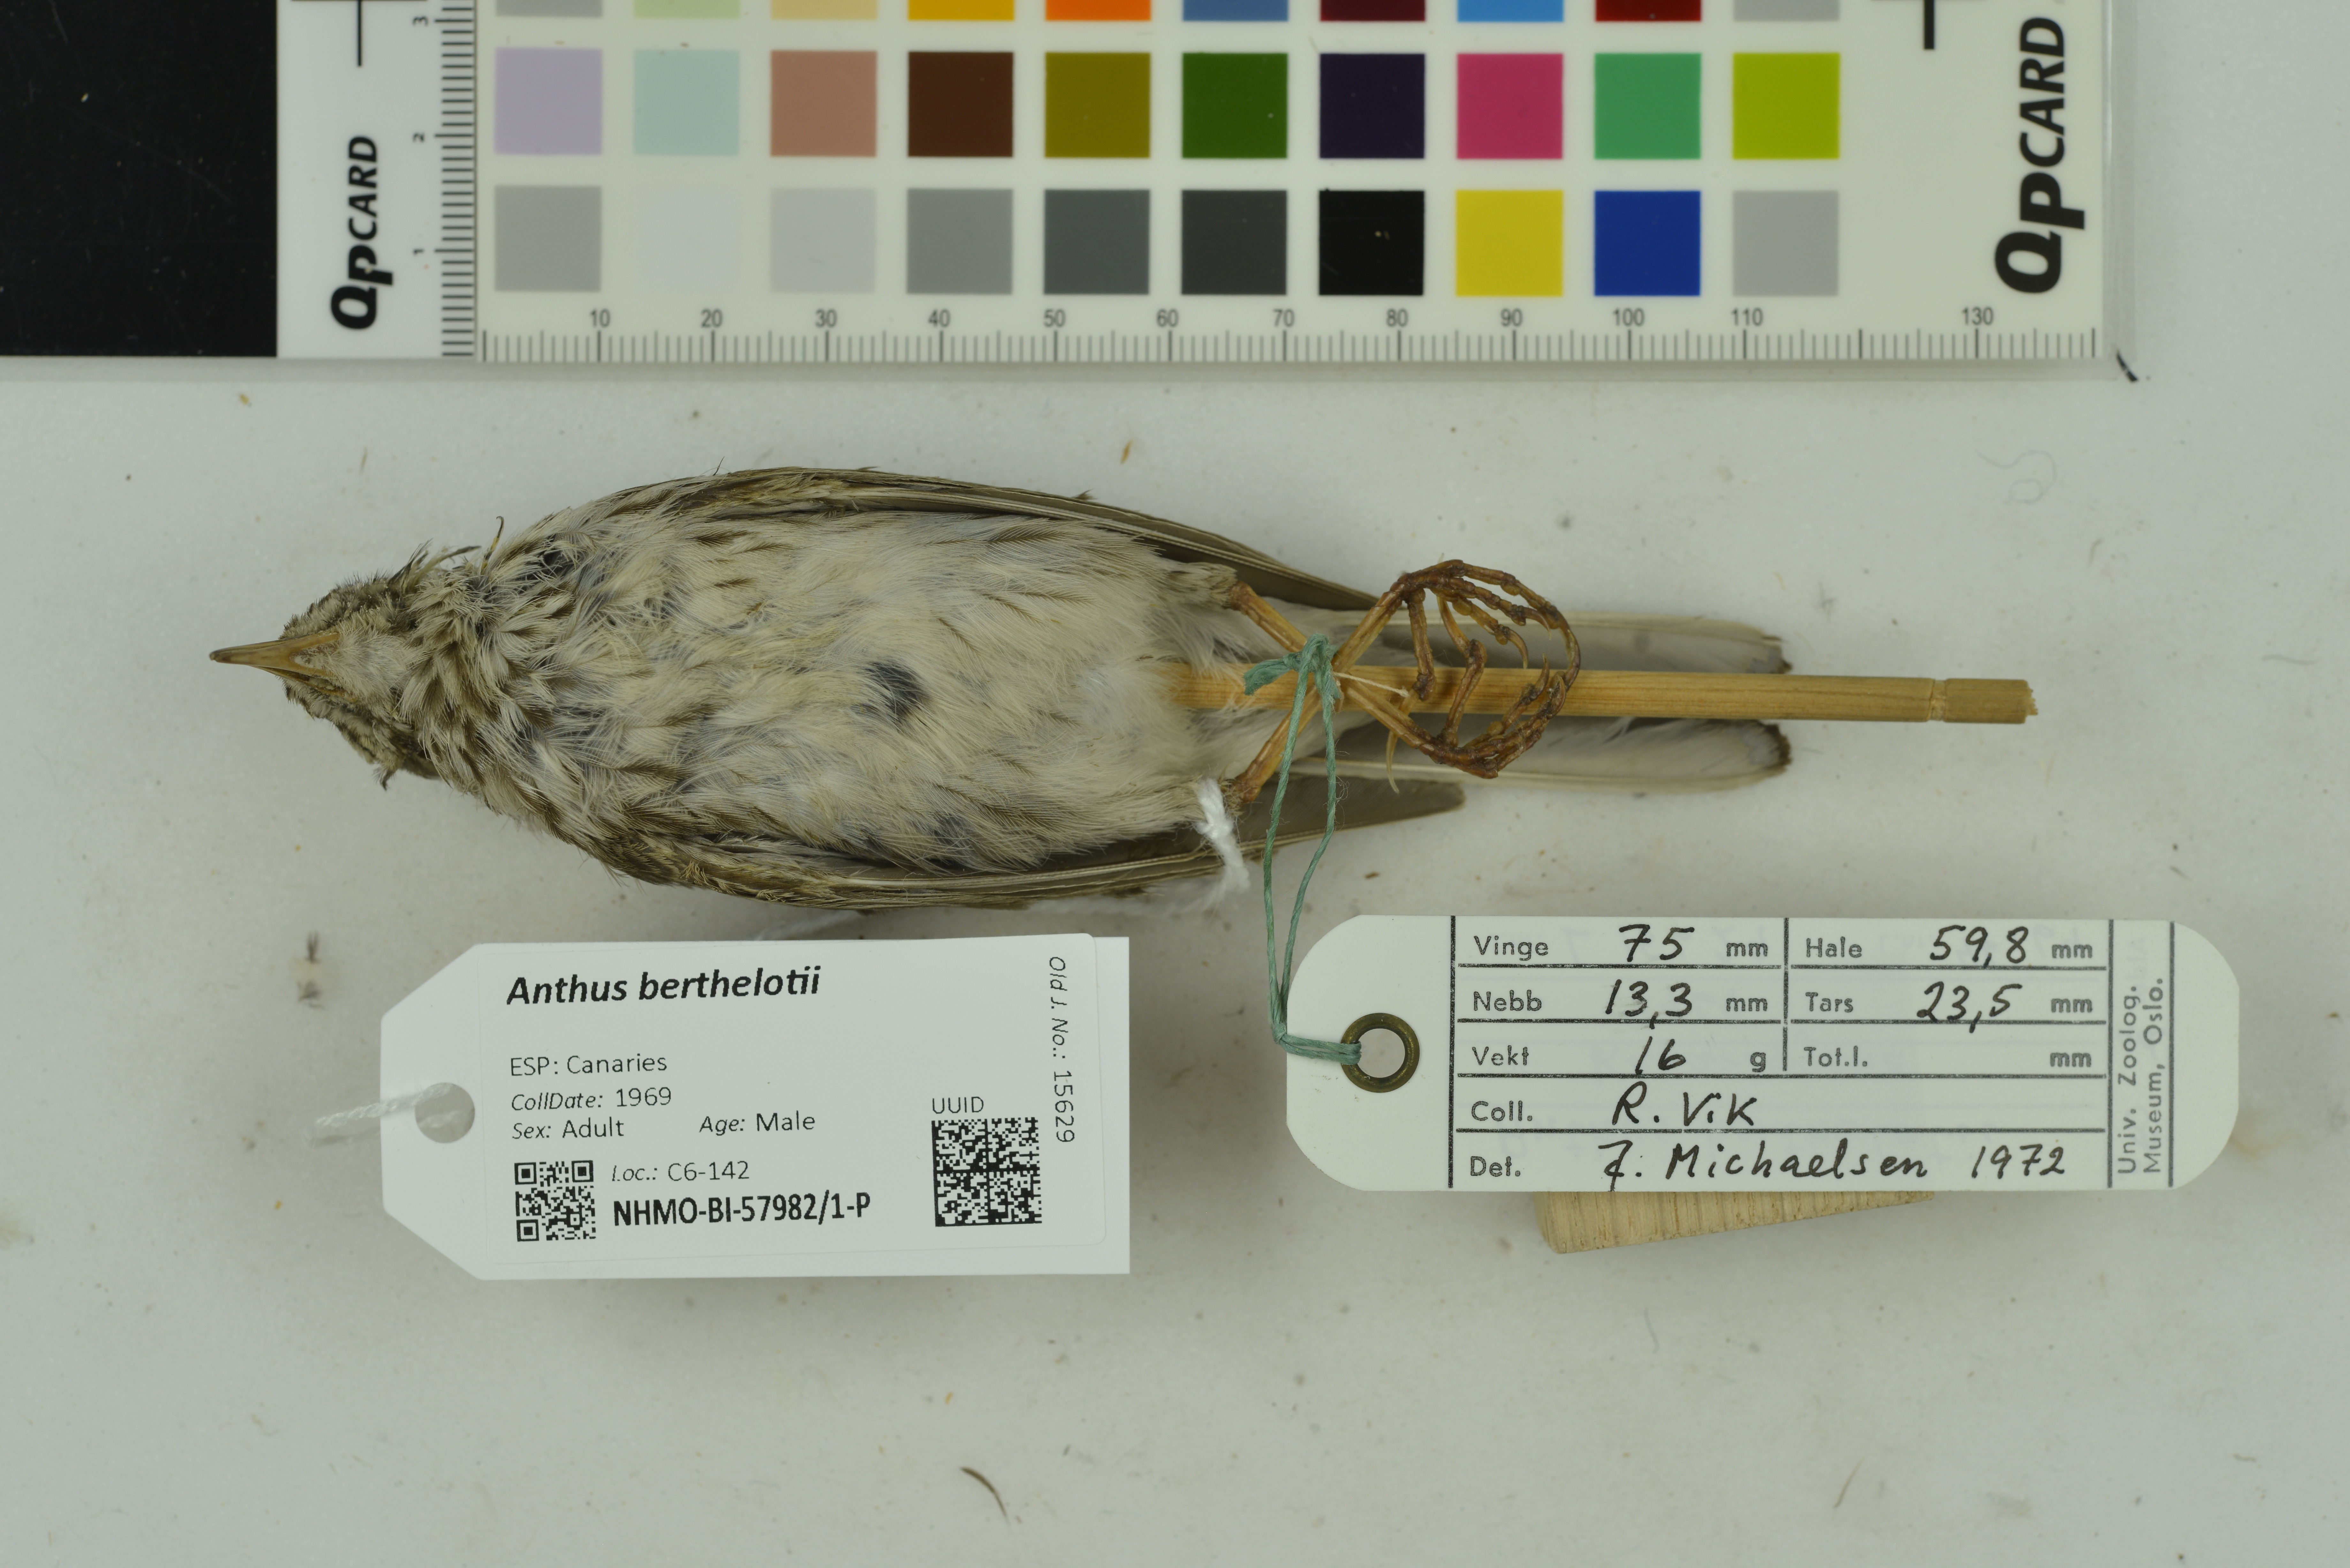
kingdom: Animalia
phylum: Chordata
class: Aves
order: Passeriformes
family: Motacillidae
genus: Anthus
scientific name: Anthus berthelotii
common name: Berthelot's pipit
